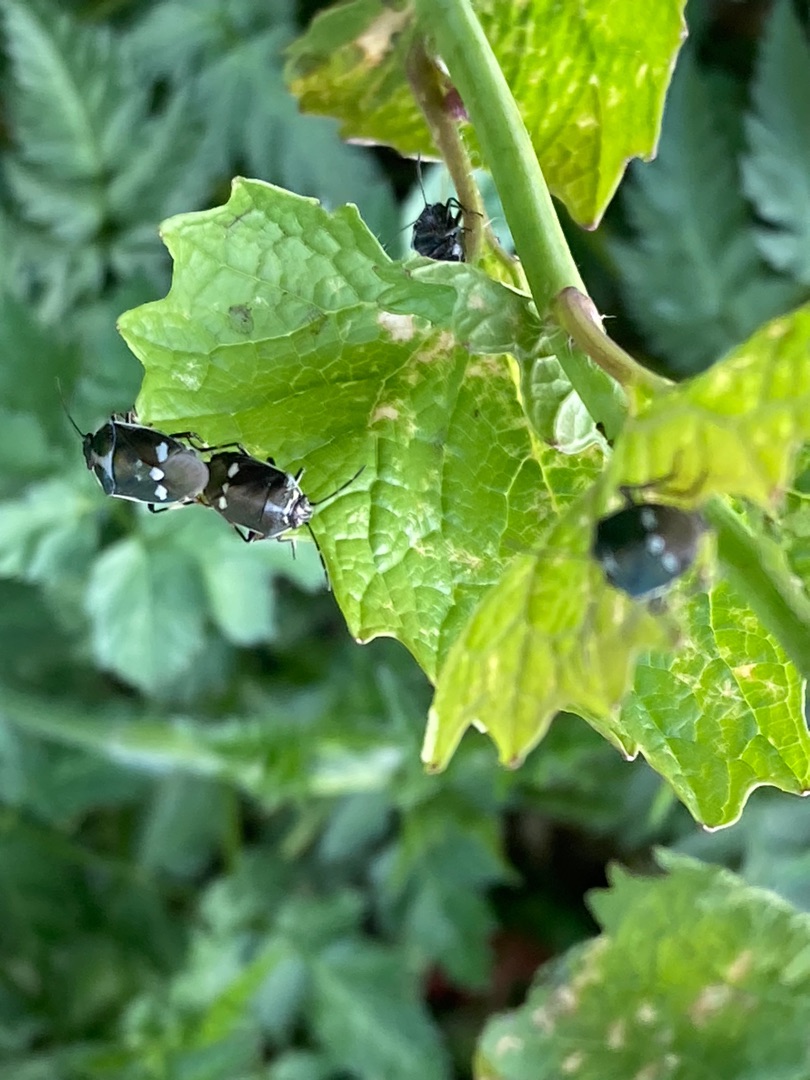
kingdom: Animalia
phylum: Arthropoda
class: Insecta
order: Hemiptera
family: Pentatomidae
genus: Eurydema
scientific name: Eurydema oleracea
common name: Almindelig kåltæge
